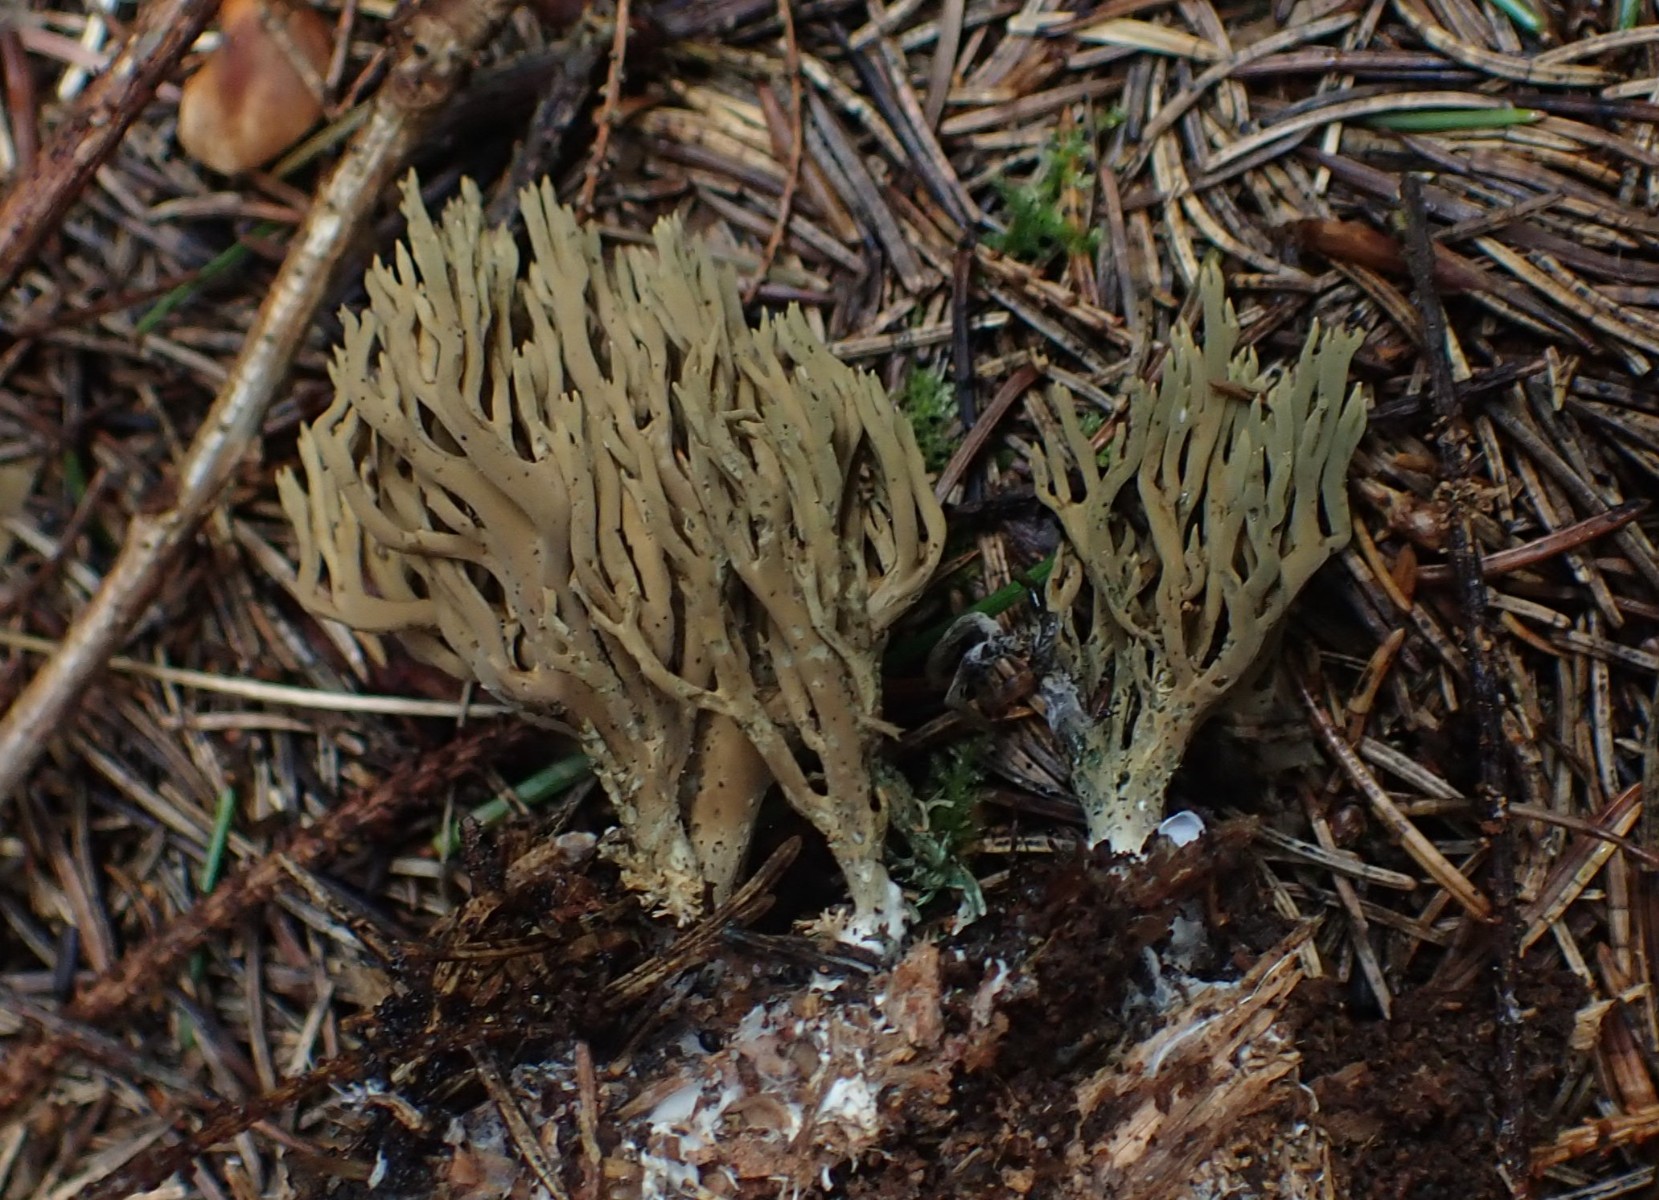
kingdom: Fungi
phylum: Basidiomycota
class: Agaricomycetes
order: Gomphales
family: Gomphaceae
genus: Phaeoclavulina
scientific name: Phaeoclavulina abietina
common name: gulgrøn koralsvamp
